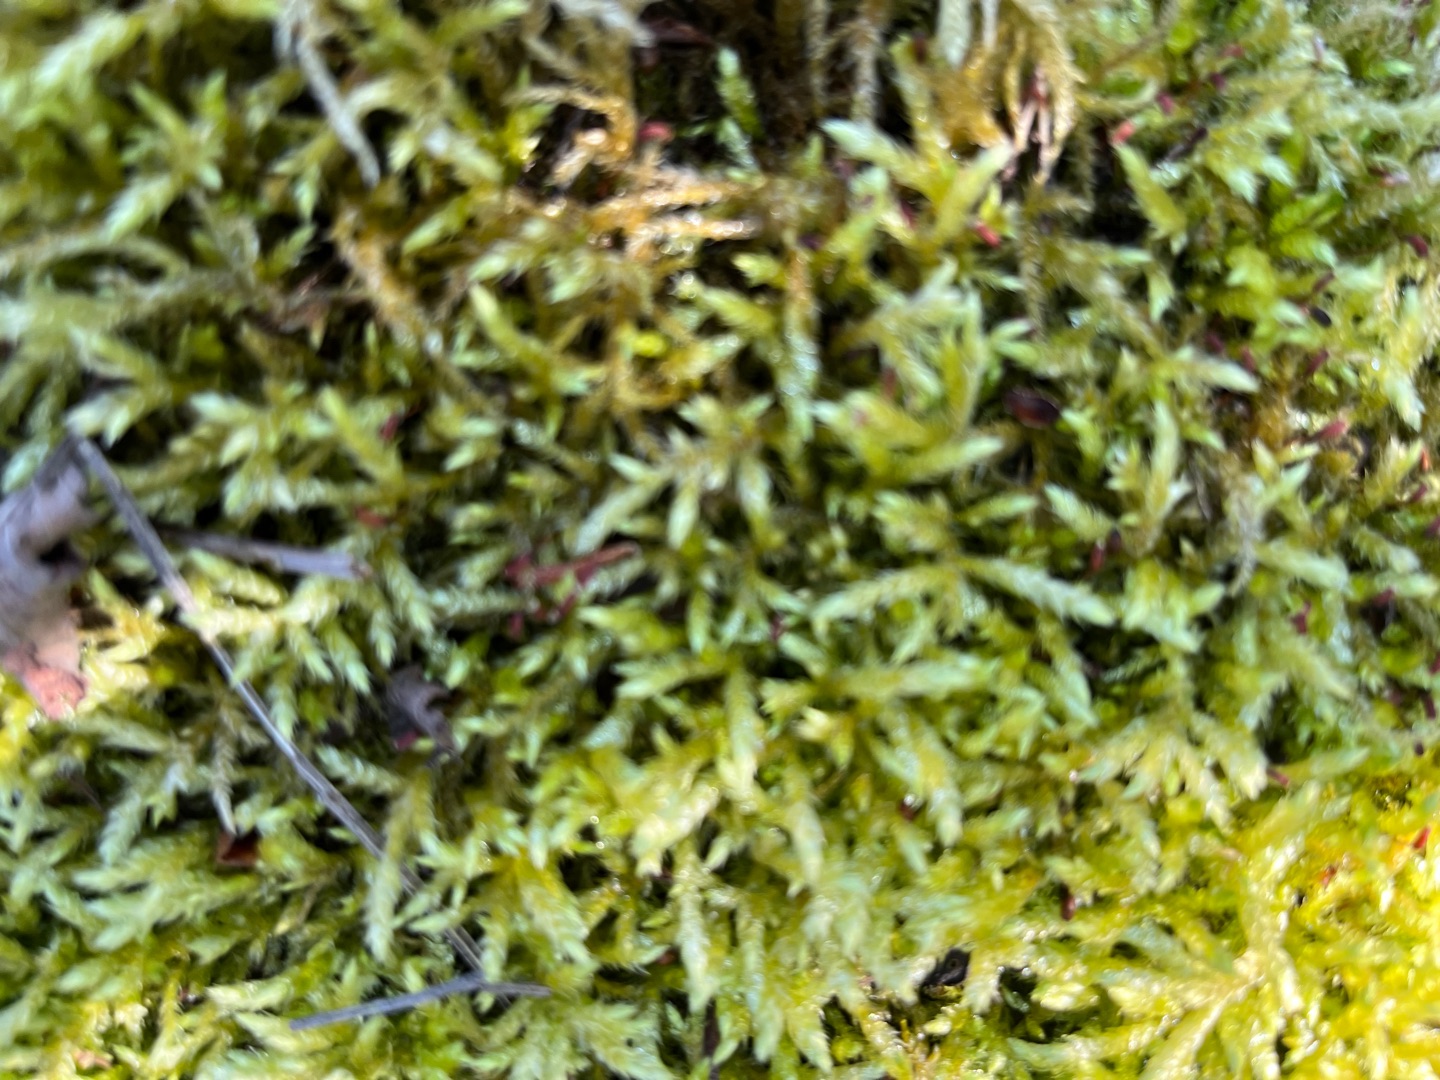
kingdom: Plantae
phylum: Bryophyta
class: Bryopsida
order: Hypnales
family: Brachytheciaceae
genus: Brachythecium
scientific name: Brachythecium rutabulum
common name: Almindelig kortkapsel
